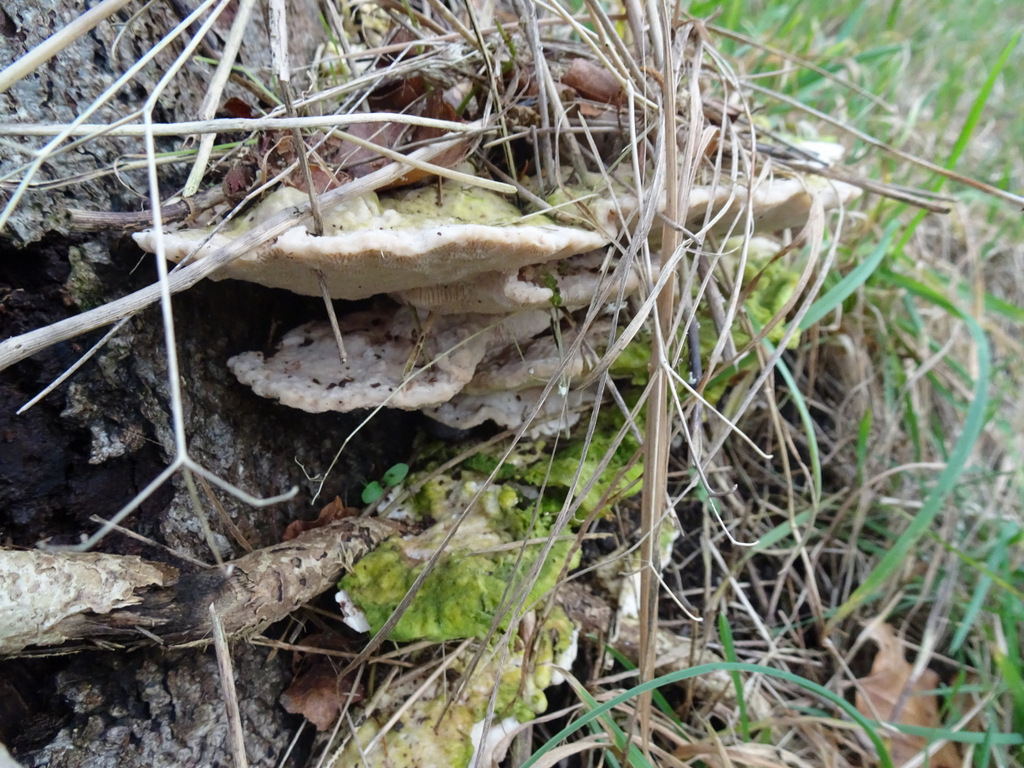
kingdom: Fungi
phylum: Basidiomycota
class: Agaricomycetes
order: Polyporales
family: Polyporaceae
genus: Trametes
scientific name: Trametes gibbosa
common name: puklet læderporesvamp
